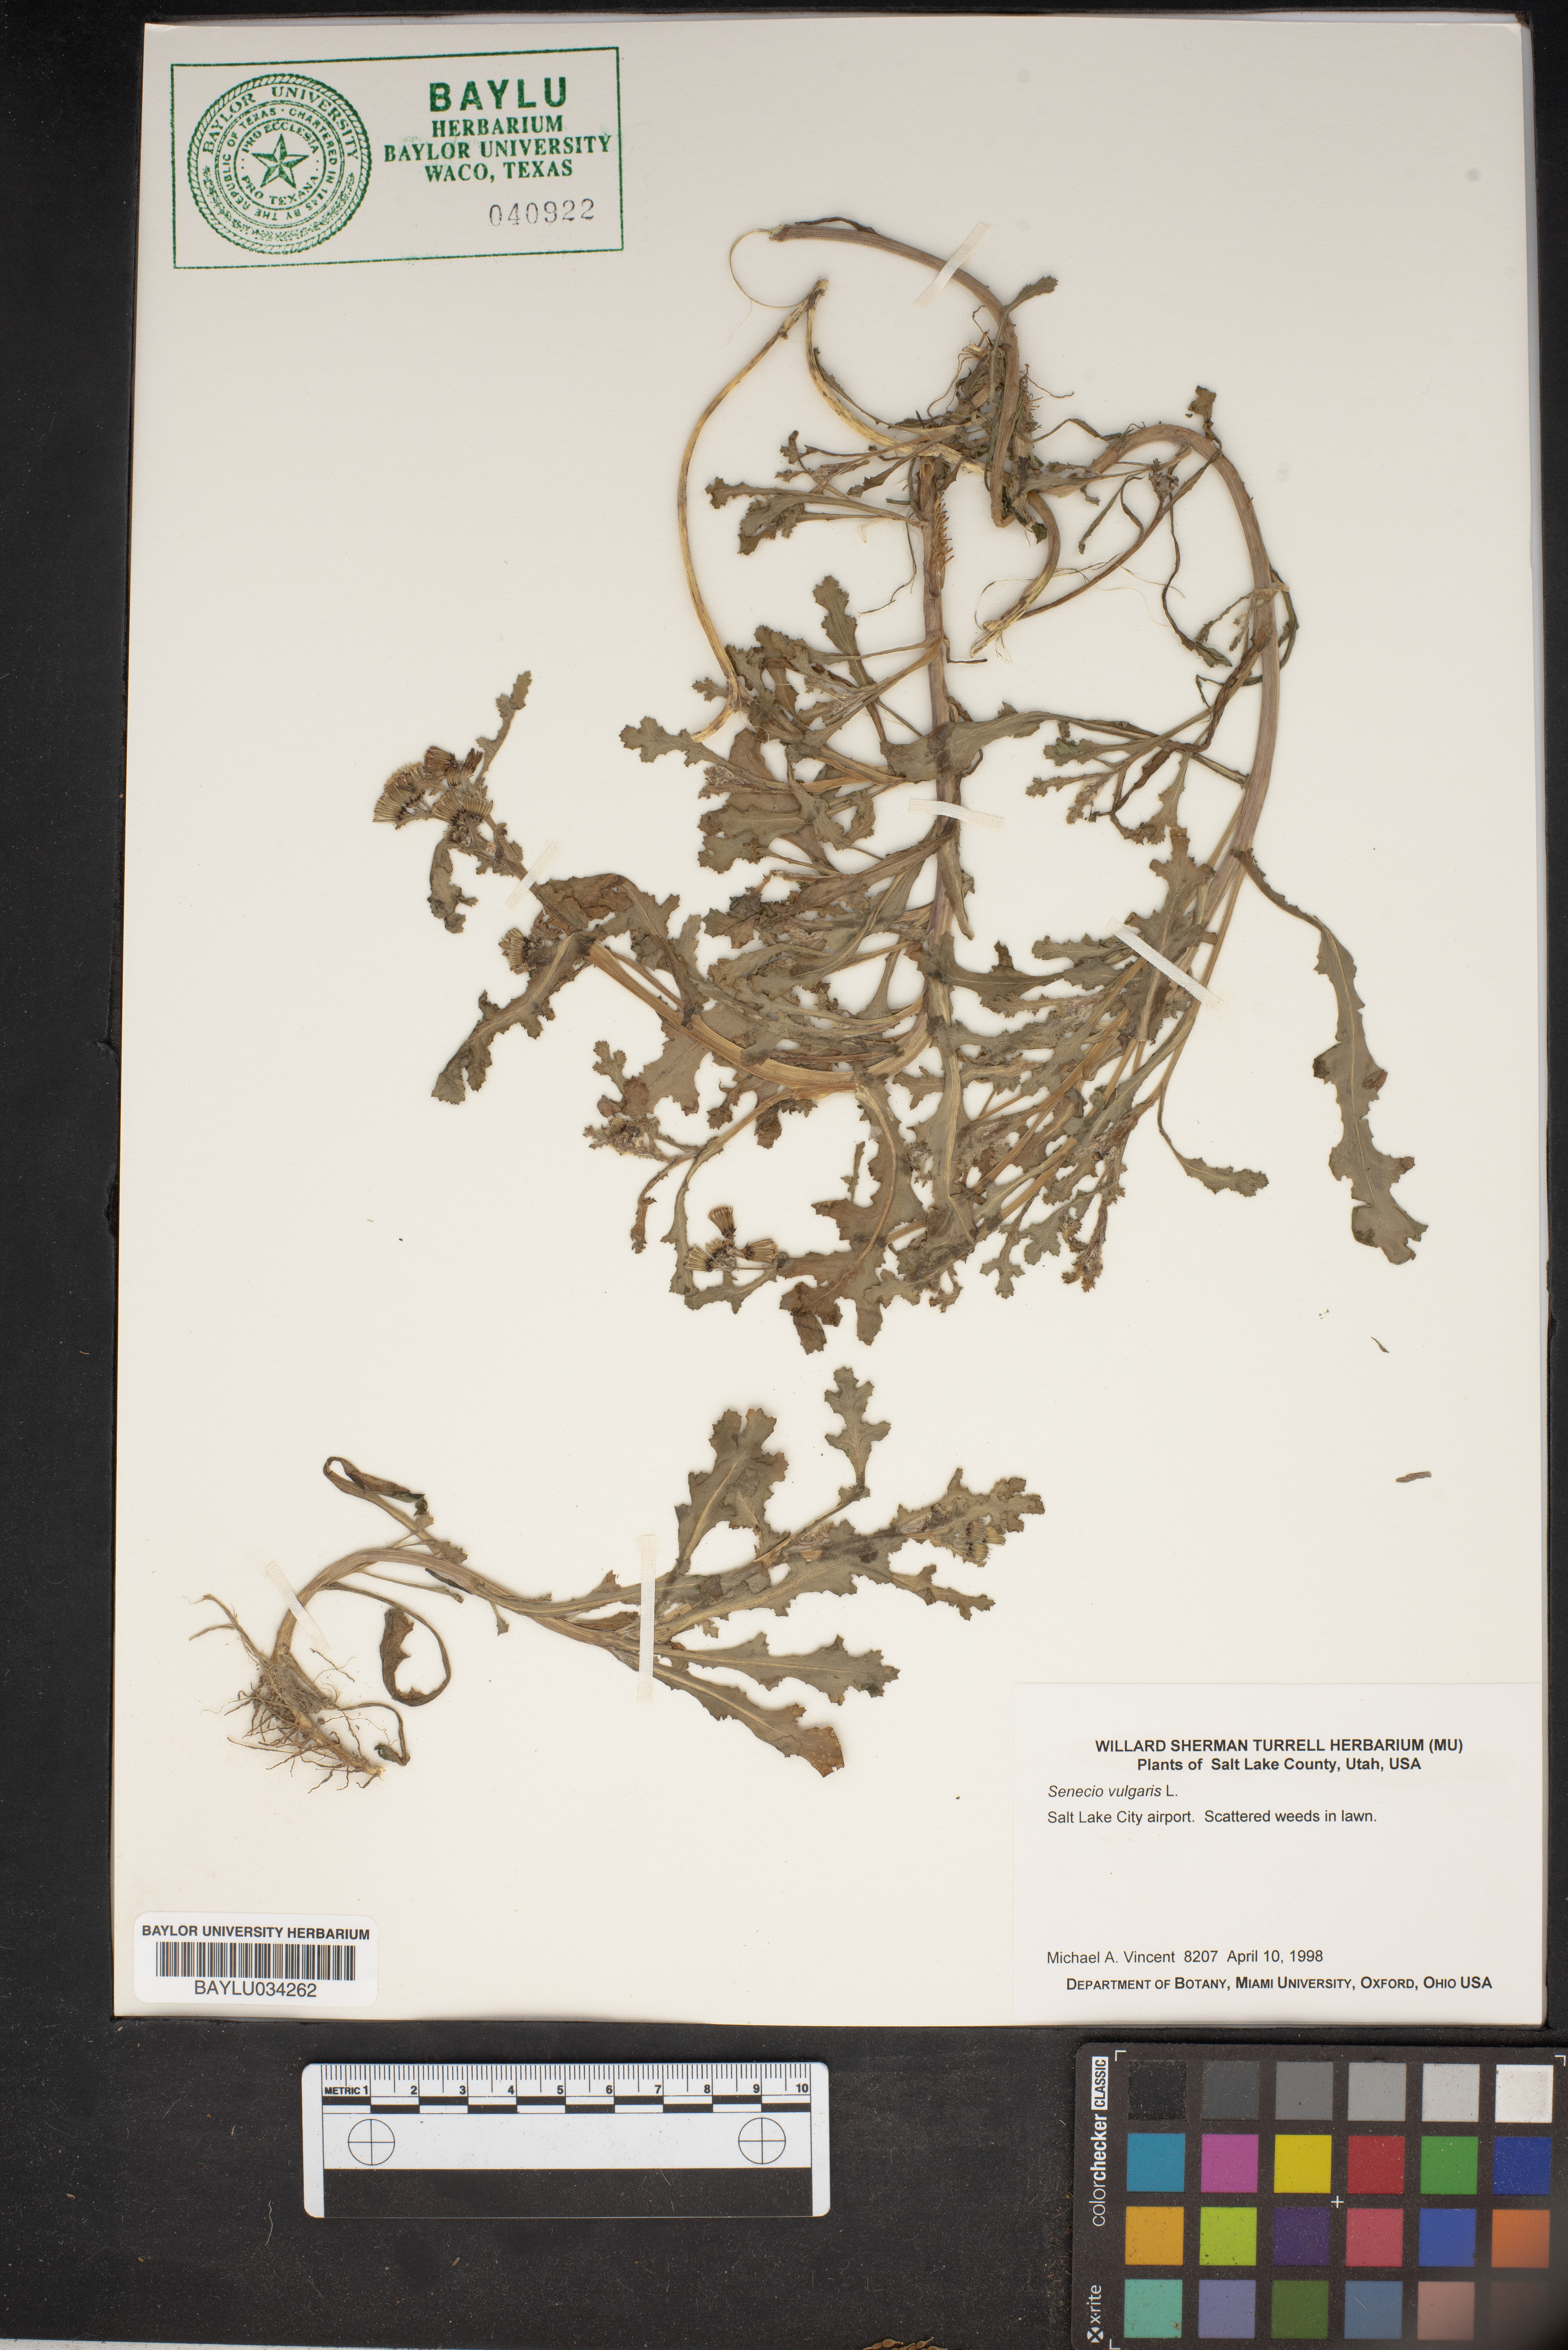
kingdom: Plantae
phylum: Tracheophyta
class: Magnoliopsida
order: Asterales
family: Asteraceae
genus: Senecio
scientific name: Senecio vulgaris
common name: Old-man-in-the-spring
